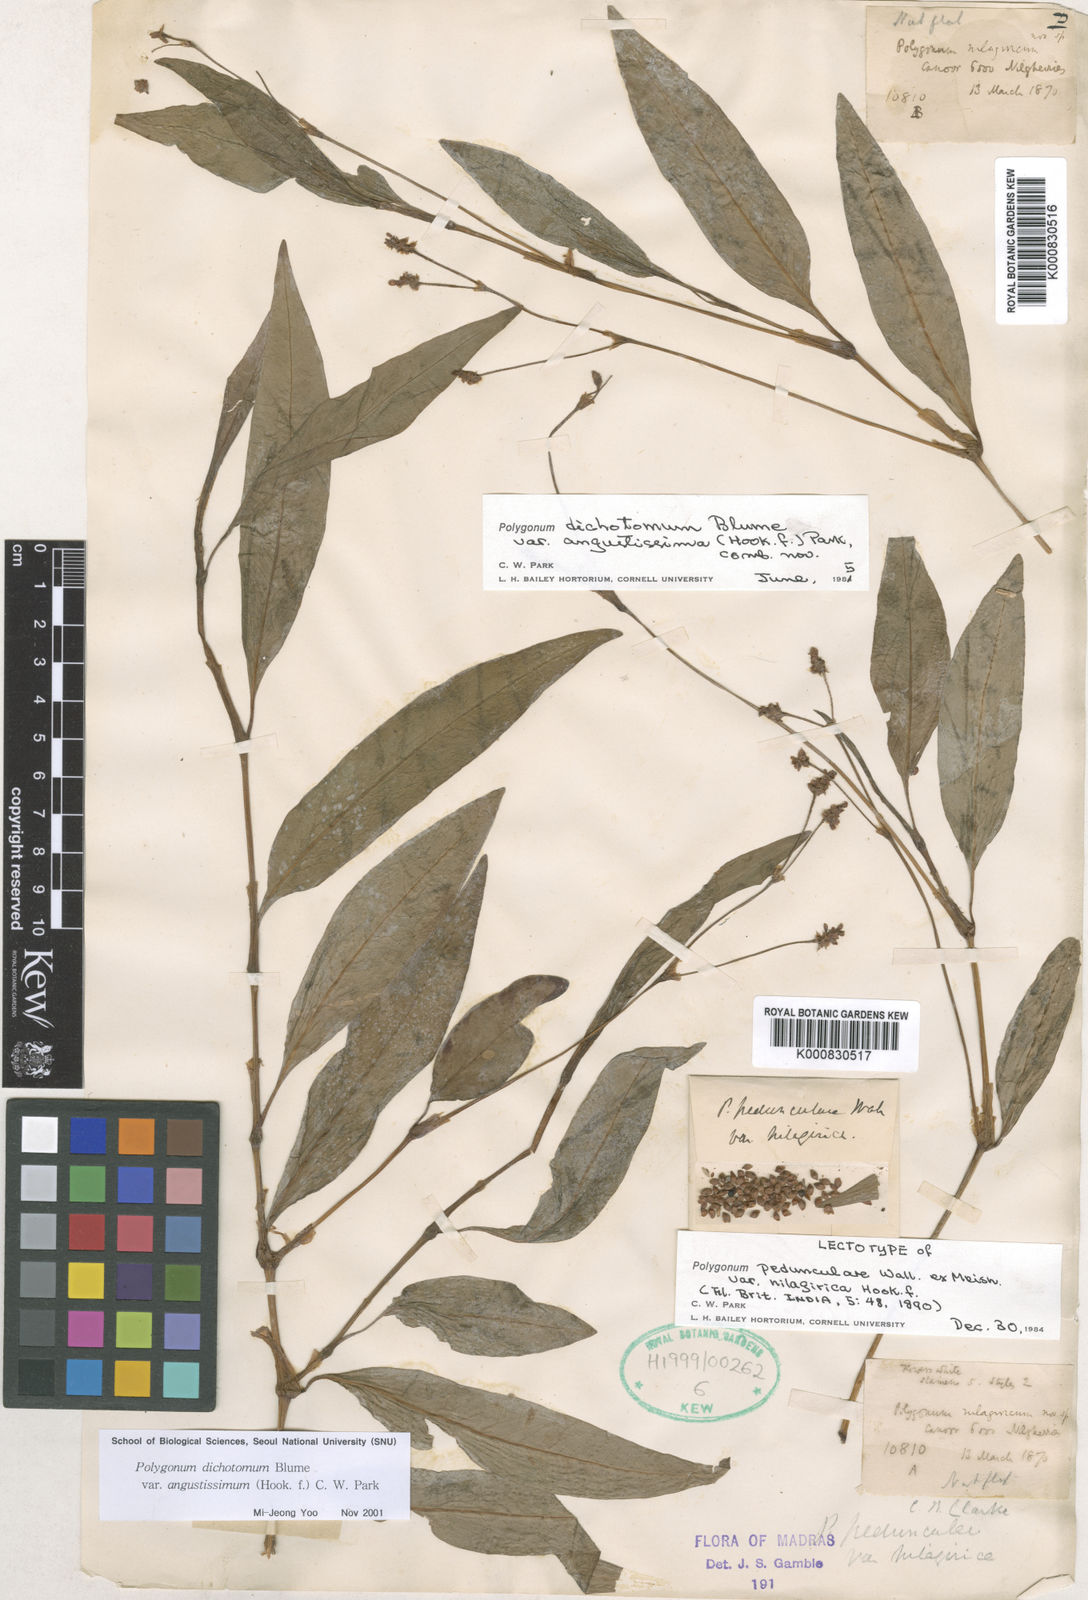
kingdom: Plantae
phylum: Tracheophyta
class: Magnoliopsida
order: Caryophyllales
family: Polygonaceae
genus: Persicaria
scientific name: Persicaria dichotoma
